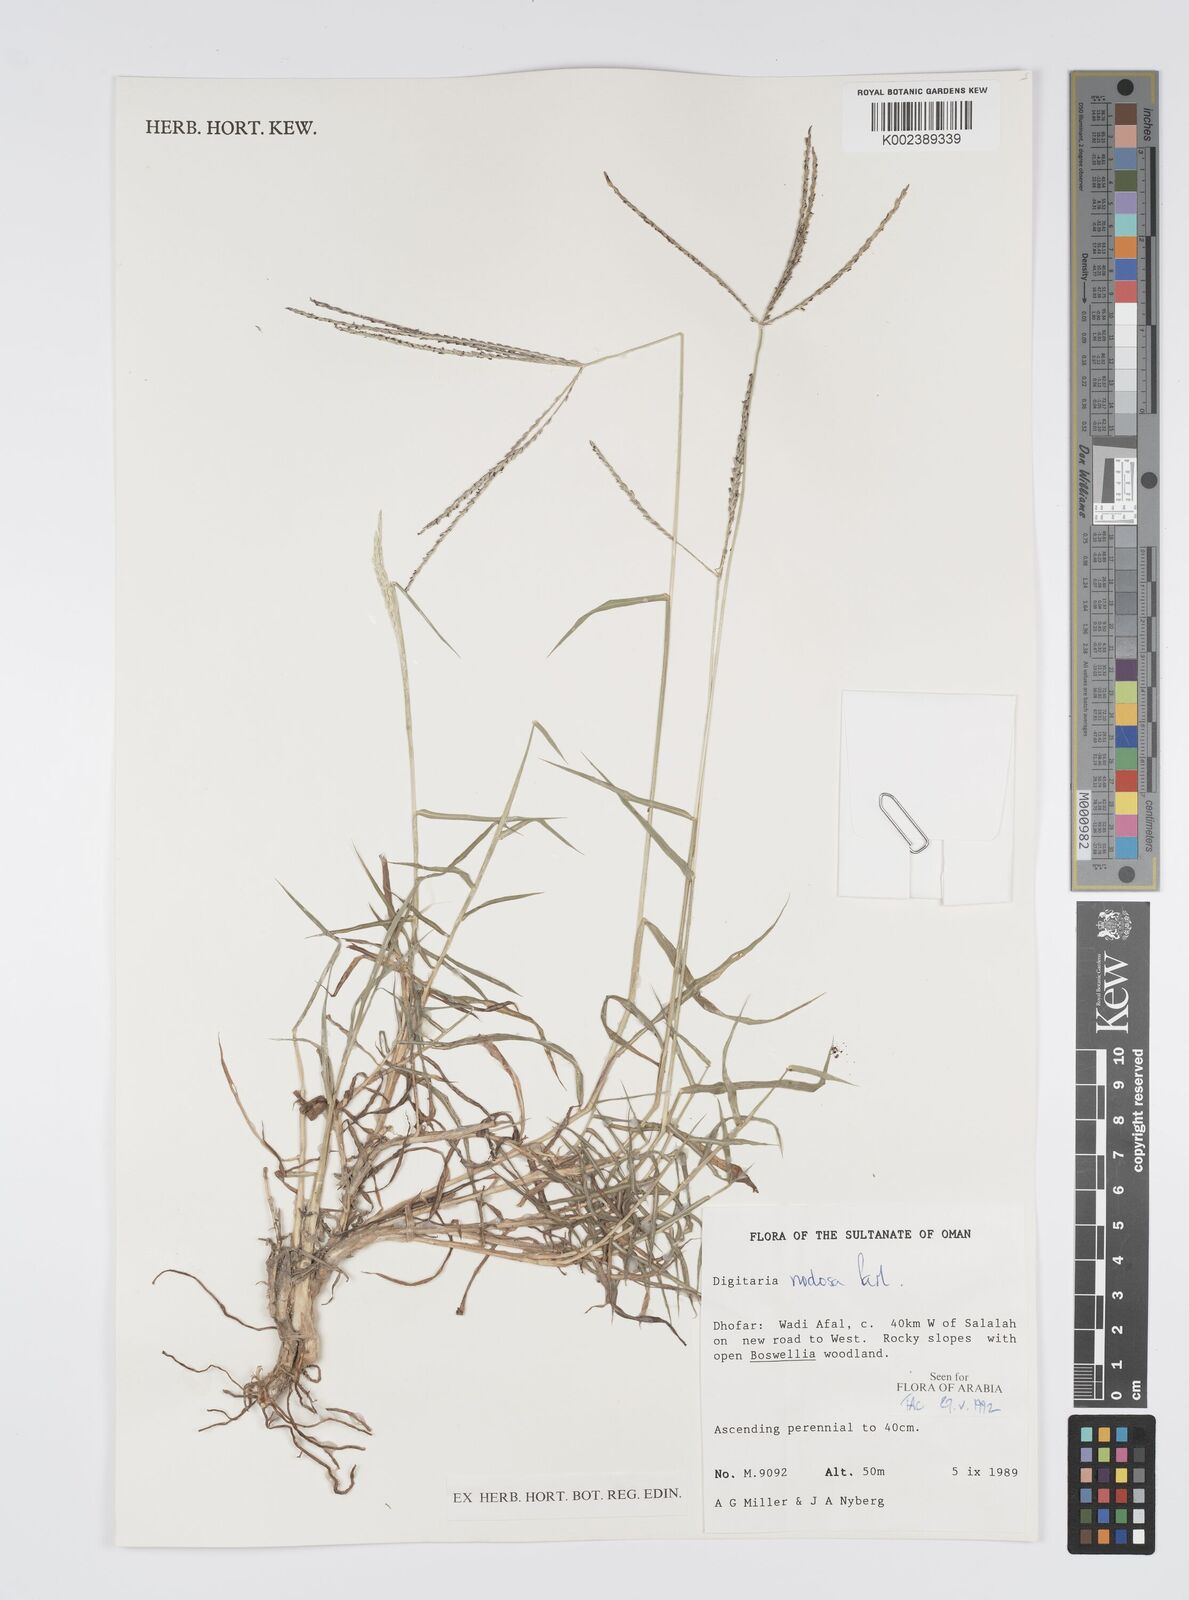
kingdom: Plantae
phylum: Tracheophyta
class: Liliopsida
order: Poales
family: Poaceae
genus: Digitaria
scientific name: Digitaria nodosa
